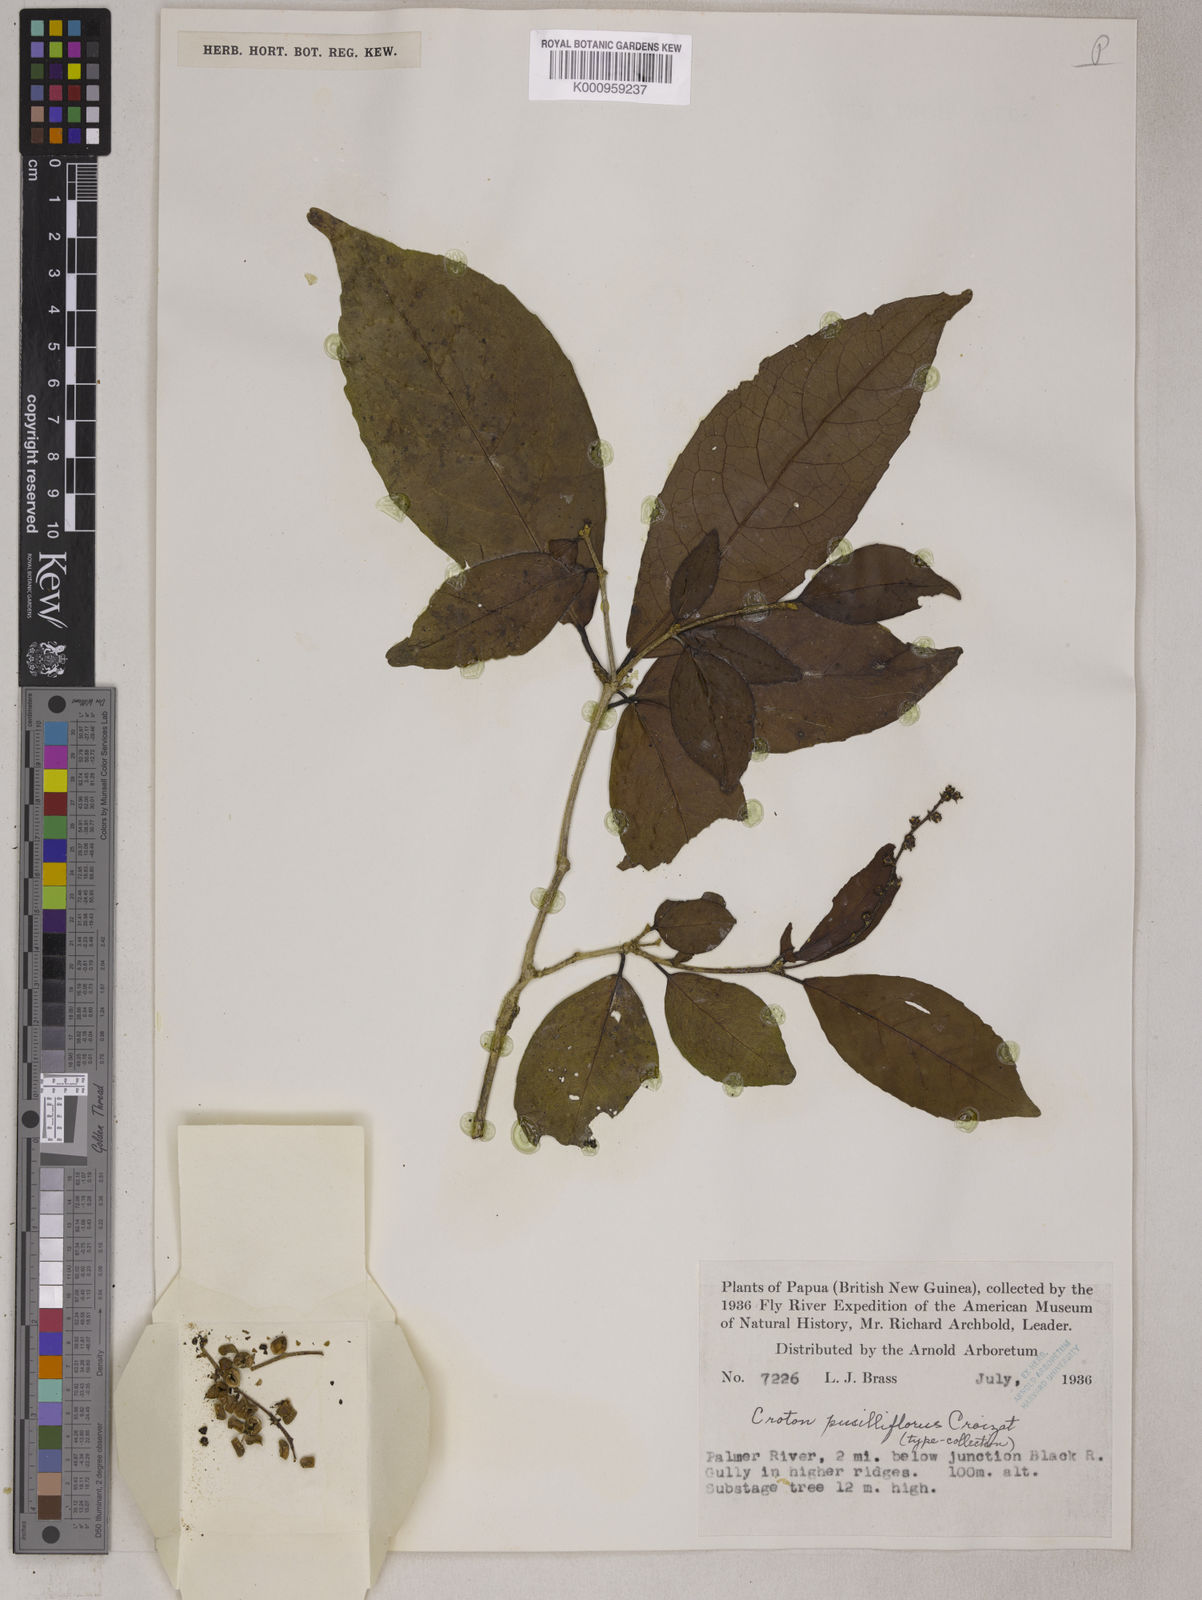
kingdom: Plantae
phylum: Tracheophyta
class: Magnoliopsida
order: Malpighiales
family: Euphorbiaceae
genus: Croton
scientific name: Croton choristadenius
